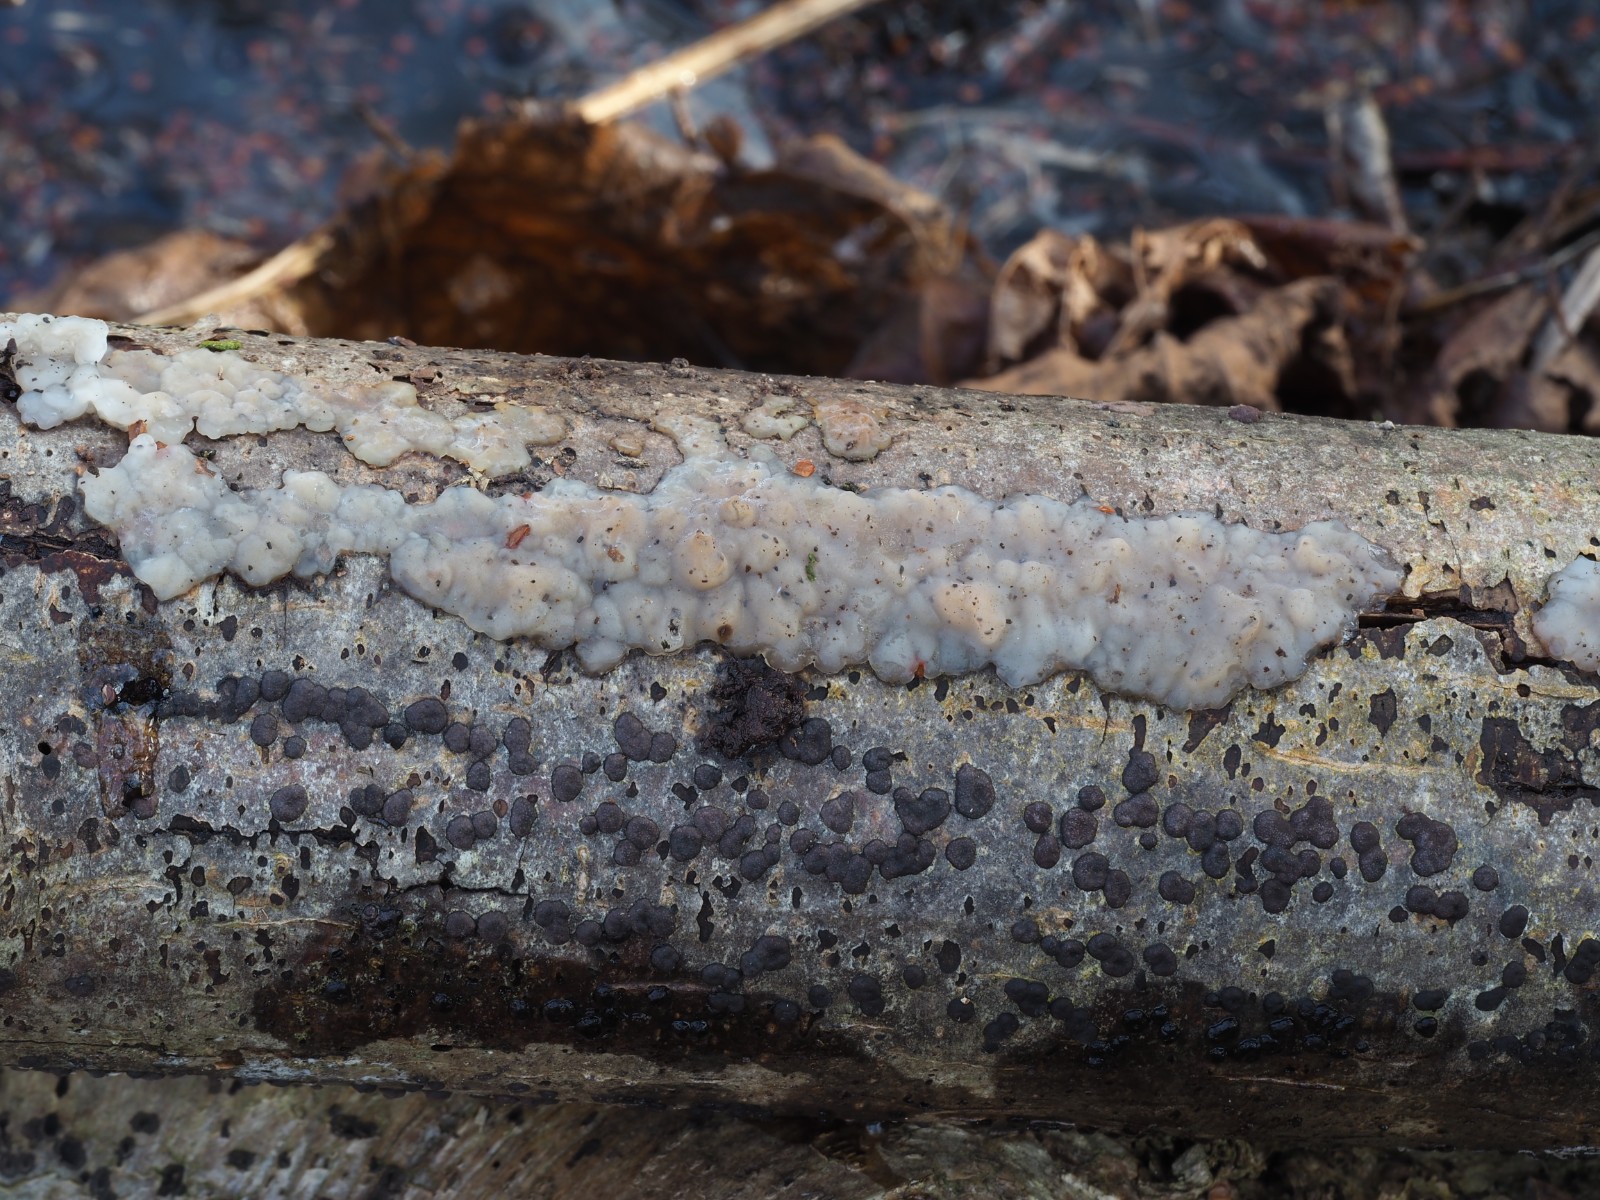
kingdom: Fungi
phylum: Basidiomycota
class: Agaricomycetes
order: Auriculariales
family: Auriculariaceae
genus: Exidia
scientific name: Exidia thuretiana
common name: hvidlig bævretop
